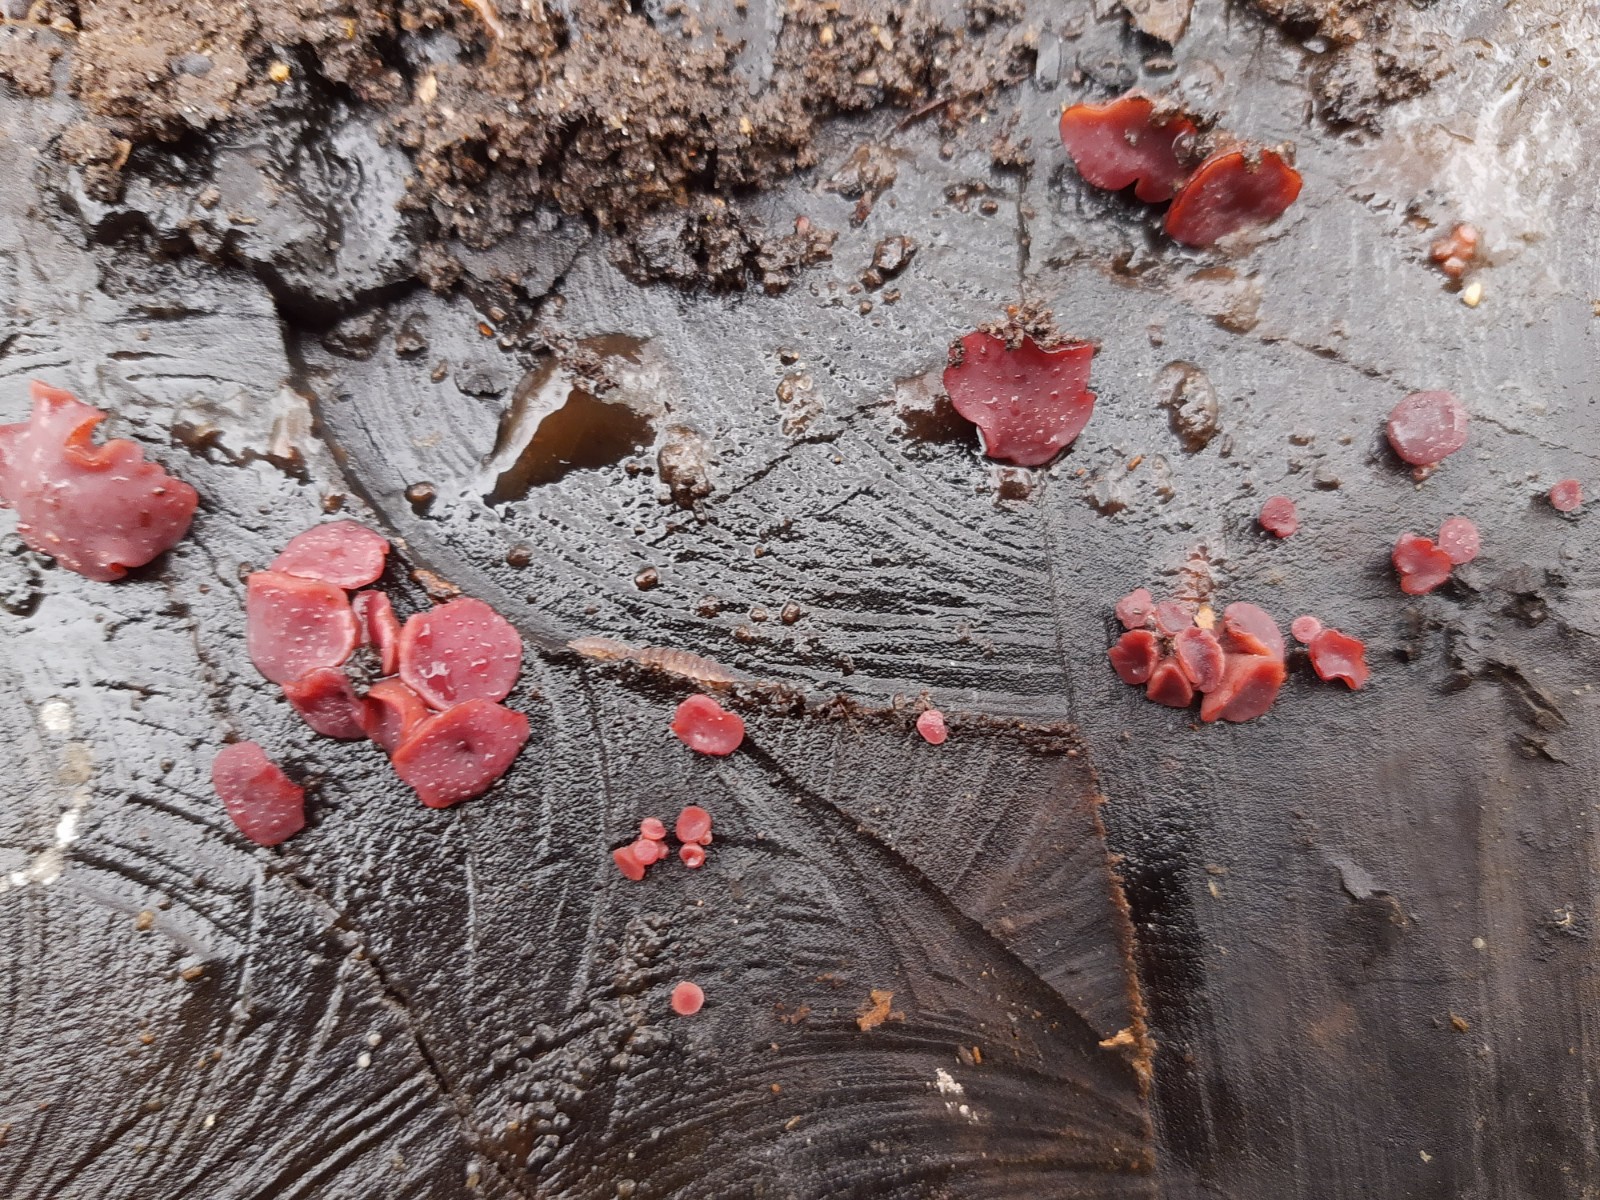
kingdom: Fungi
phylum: Ascomycota
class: Leotiomycetes
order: Helotiales
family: Gelatinodiscaceae
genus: Ascocoryne
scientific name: Ascocoryne cylichnium
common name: stor sejskive
